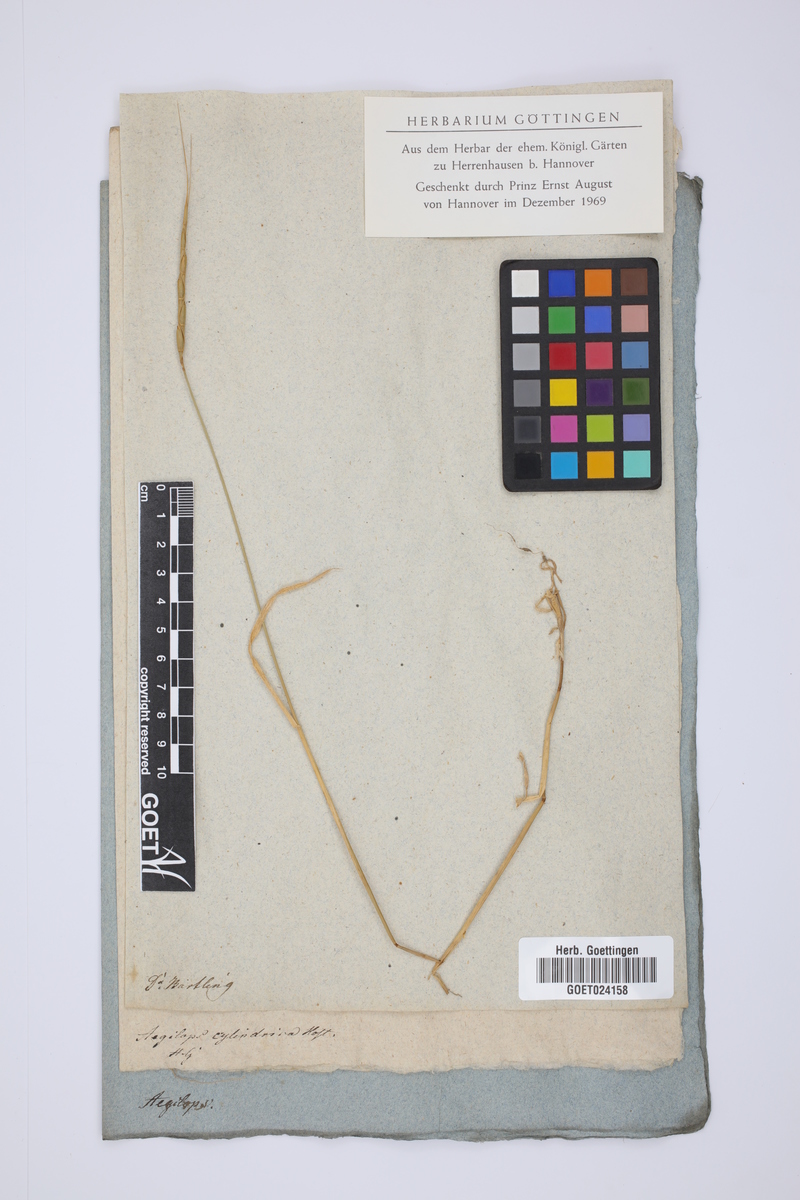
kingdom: Plantae
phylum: Tracheophyta
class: Liliopsida
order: Poales
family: Poaceae
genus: Aegilops
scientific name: Aegilops cylindrica
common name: Jointed goatgrass
